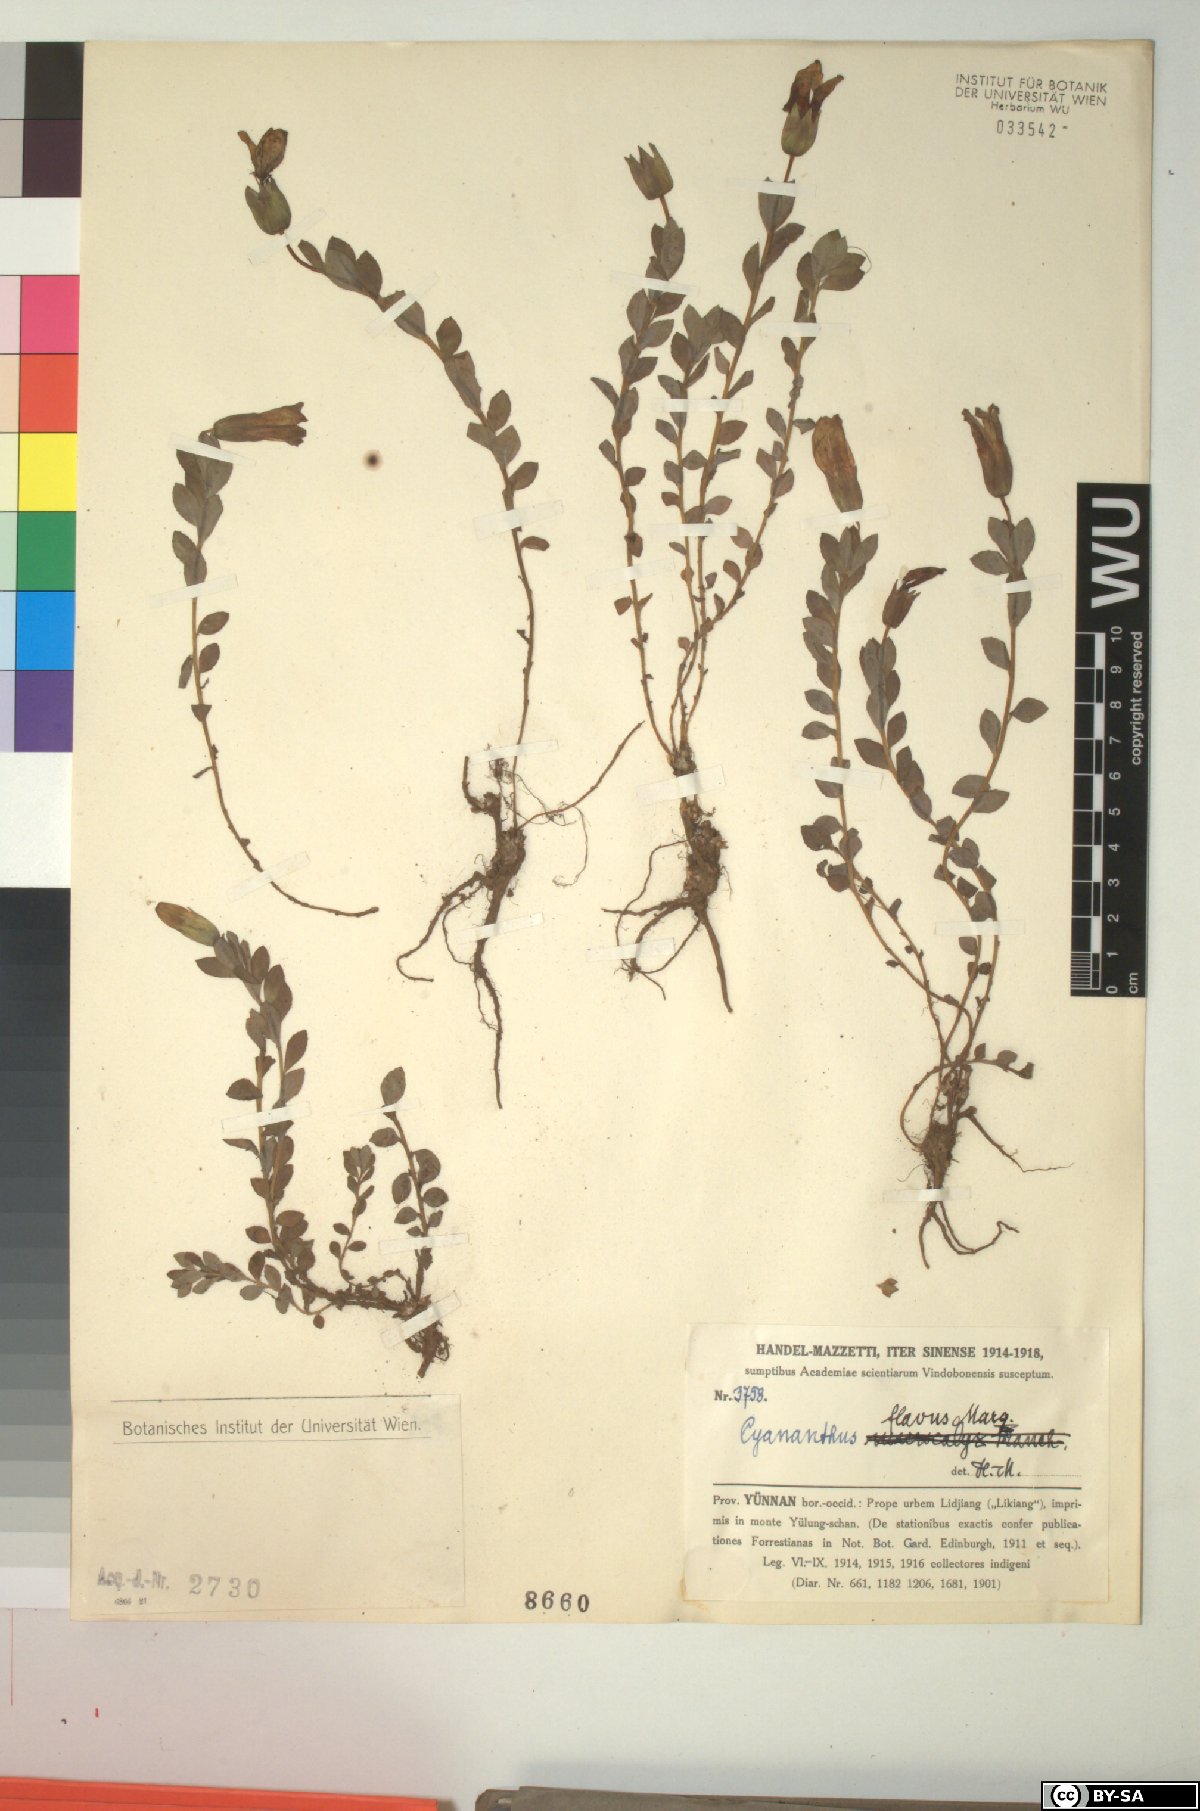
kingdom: Plantae
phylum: Tracheophyta
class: Magnoliopsida
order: Asterales
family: Campanulaceae
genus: Cyananthus
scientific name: Cyananthus flavus
